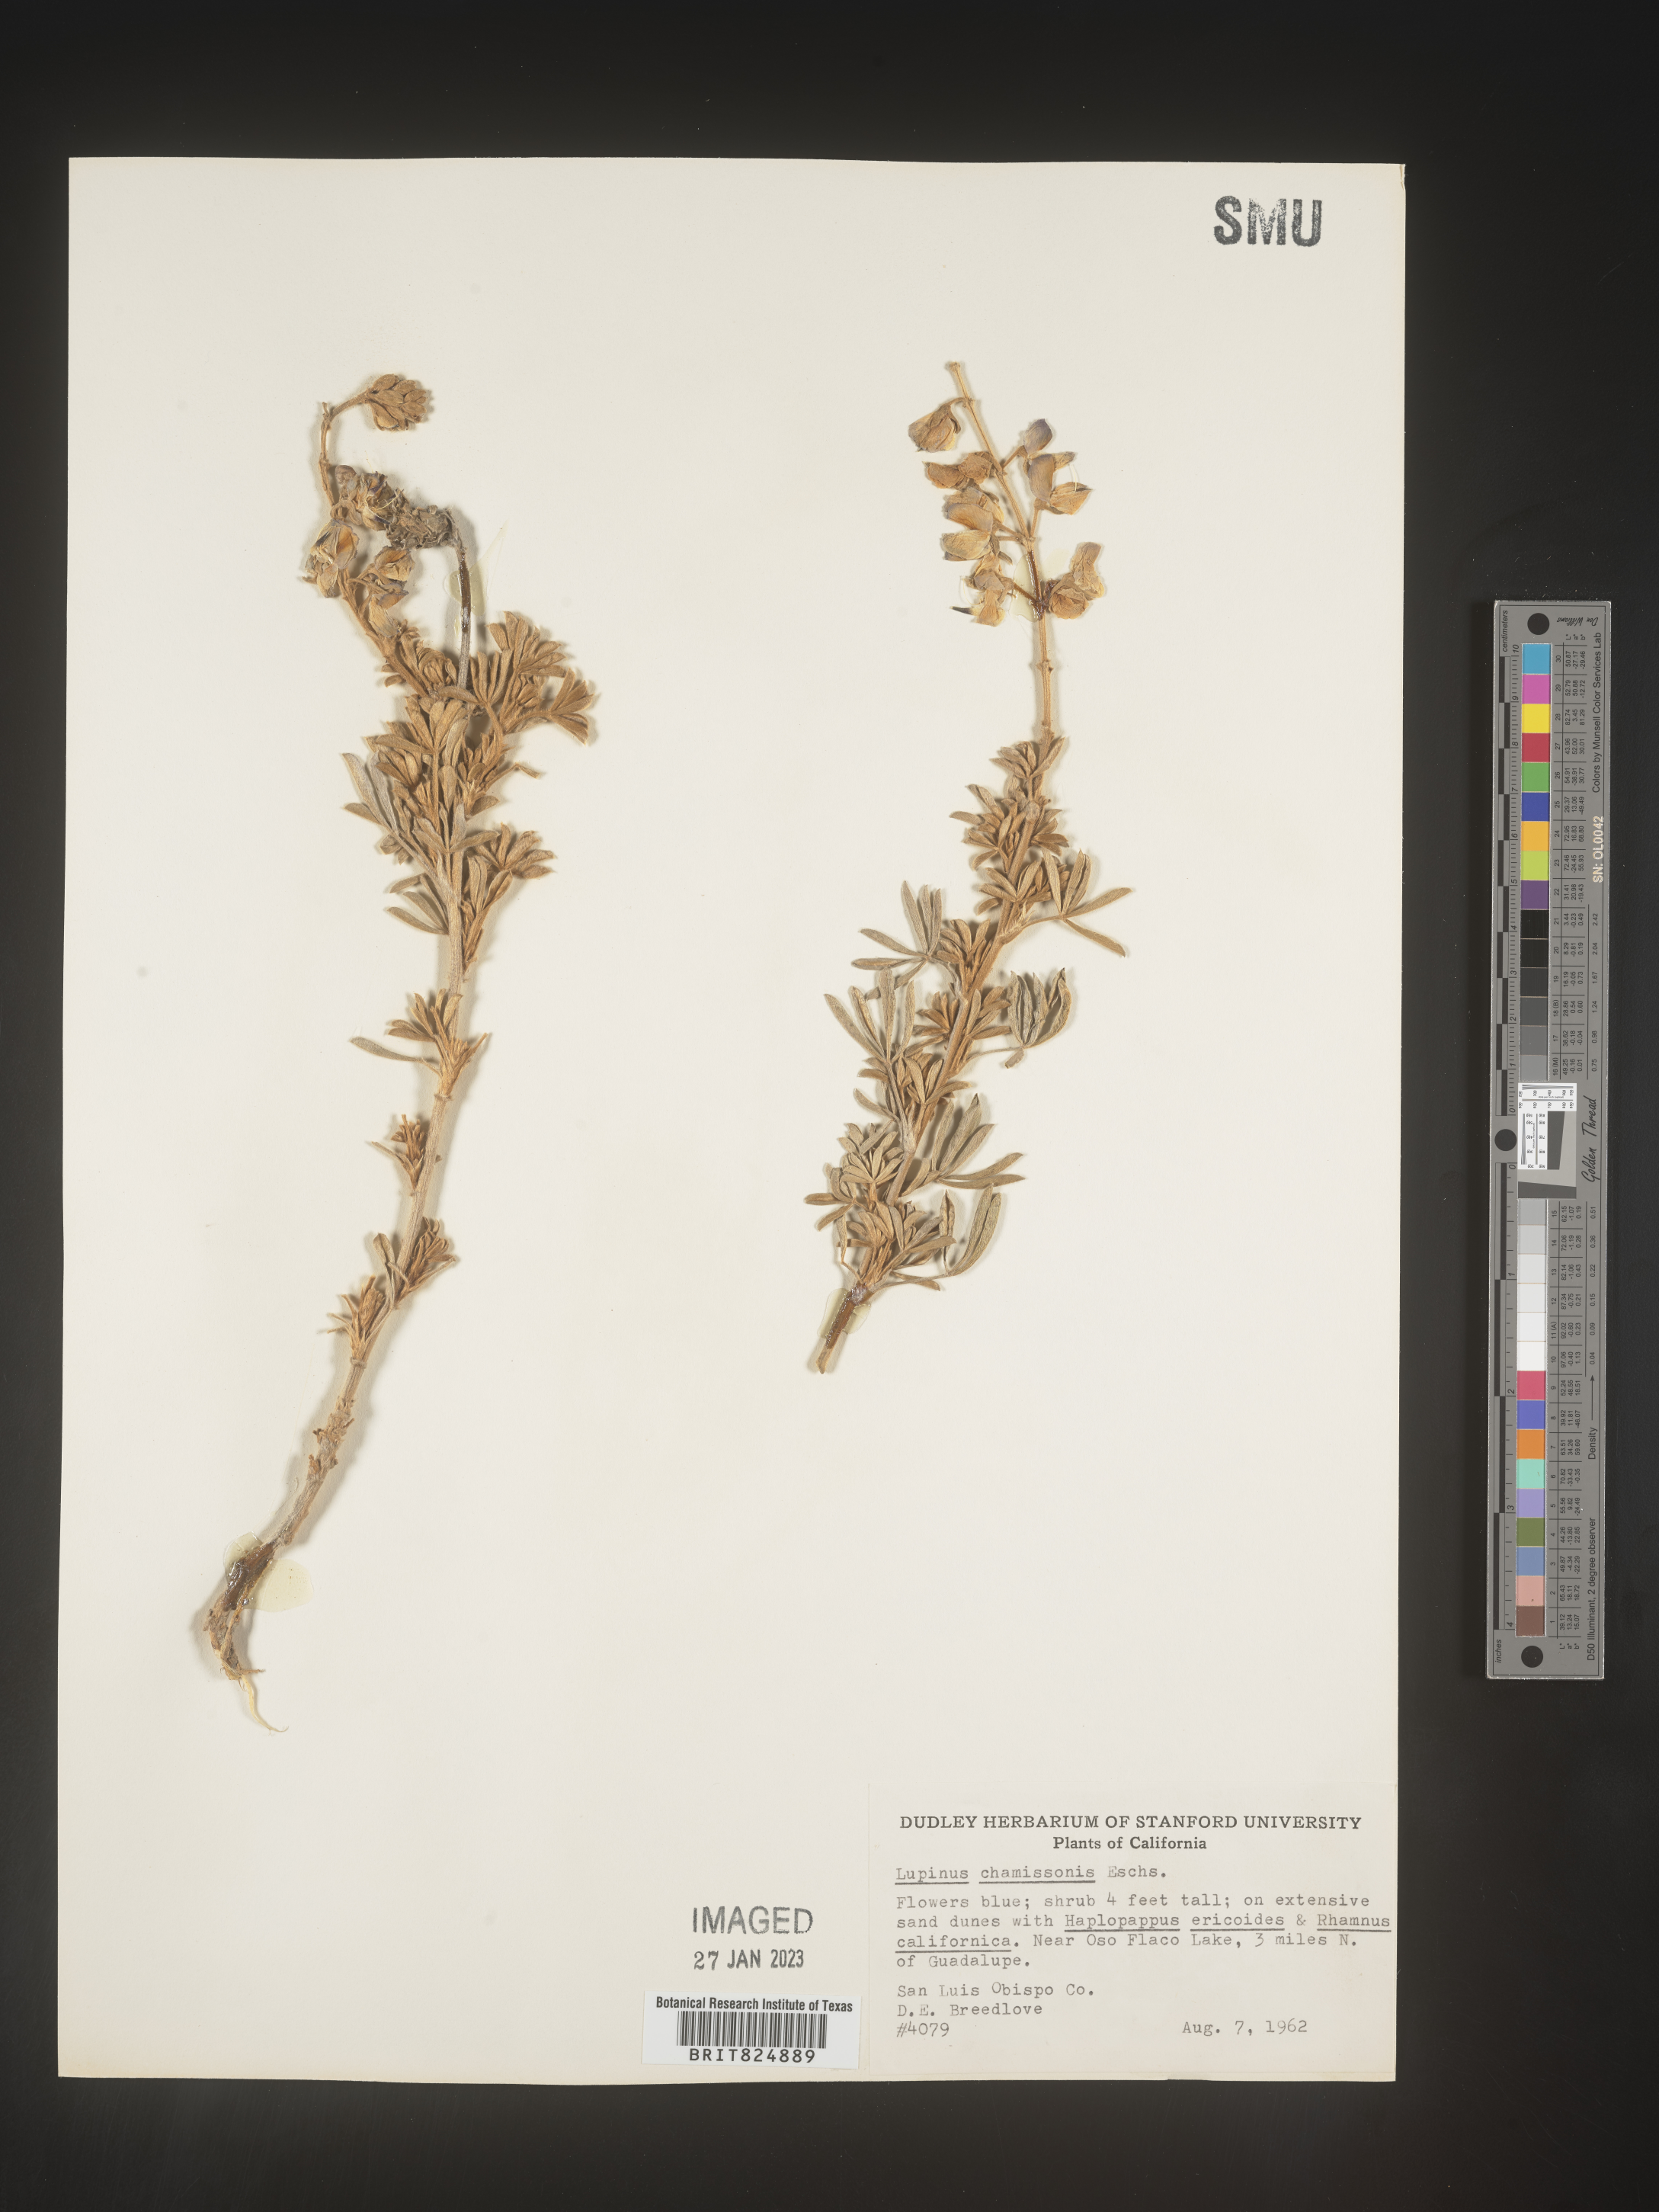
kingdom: Plantae
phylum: Tracheophyta
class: Magnoliopsida
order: Fabales
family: Fabaceae
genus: Lupinus
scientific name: Lupinus
